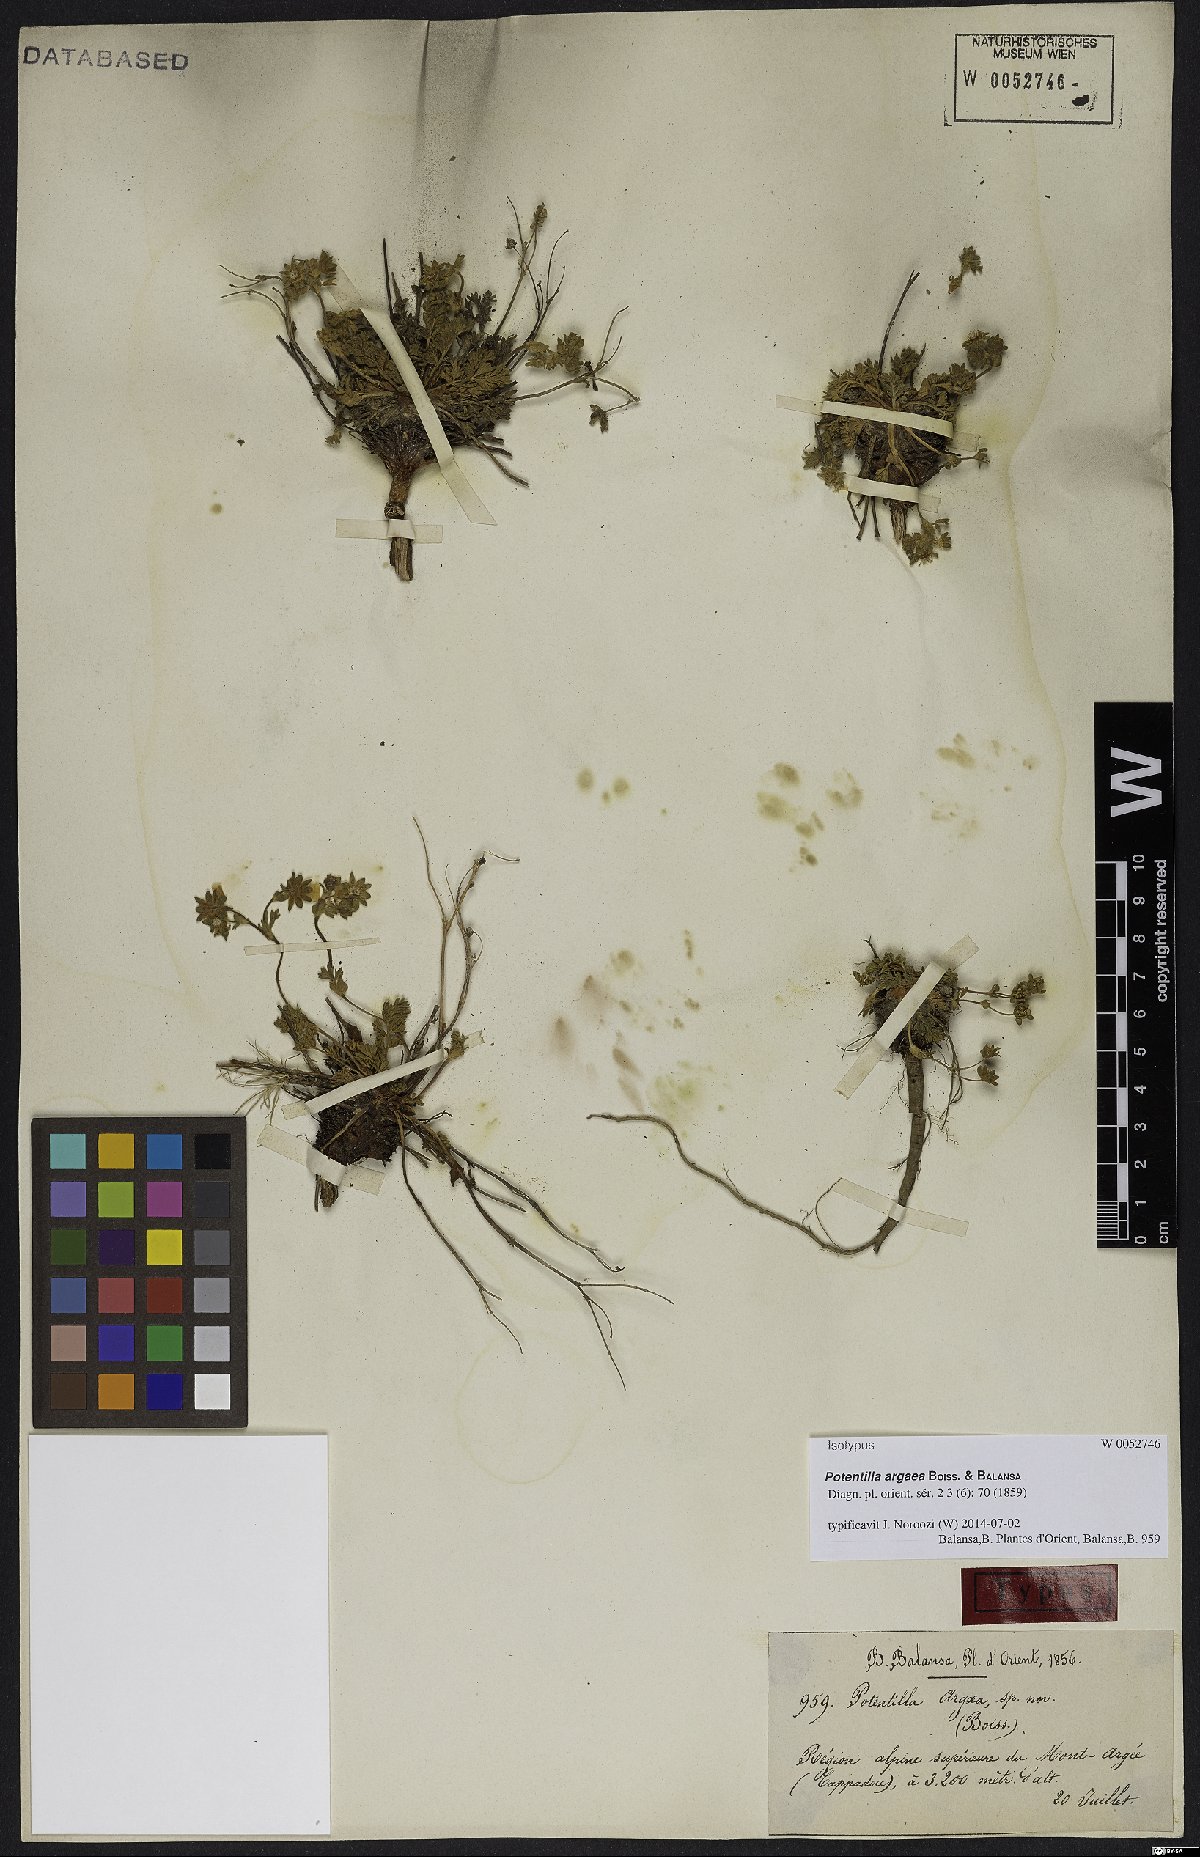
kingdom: Plantae
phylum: Tracheophyta
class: Magnoliopsida
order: Rosales
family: Rosaceae
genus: Potentilla
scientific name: Potentilla argaea
